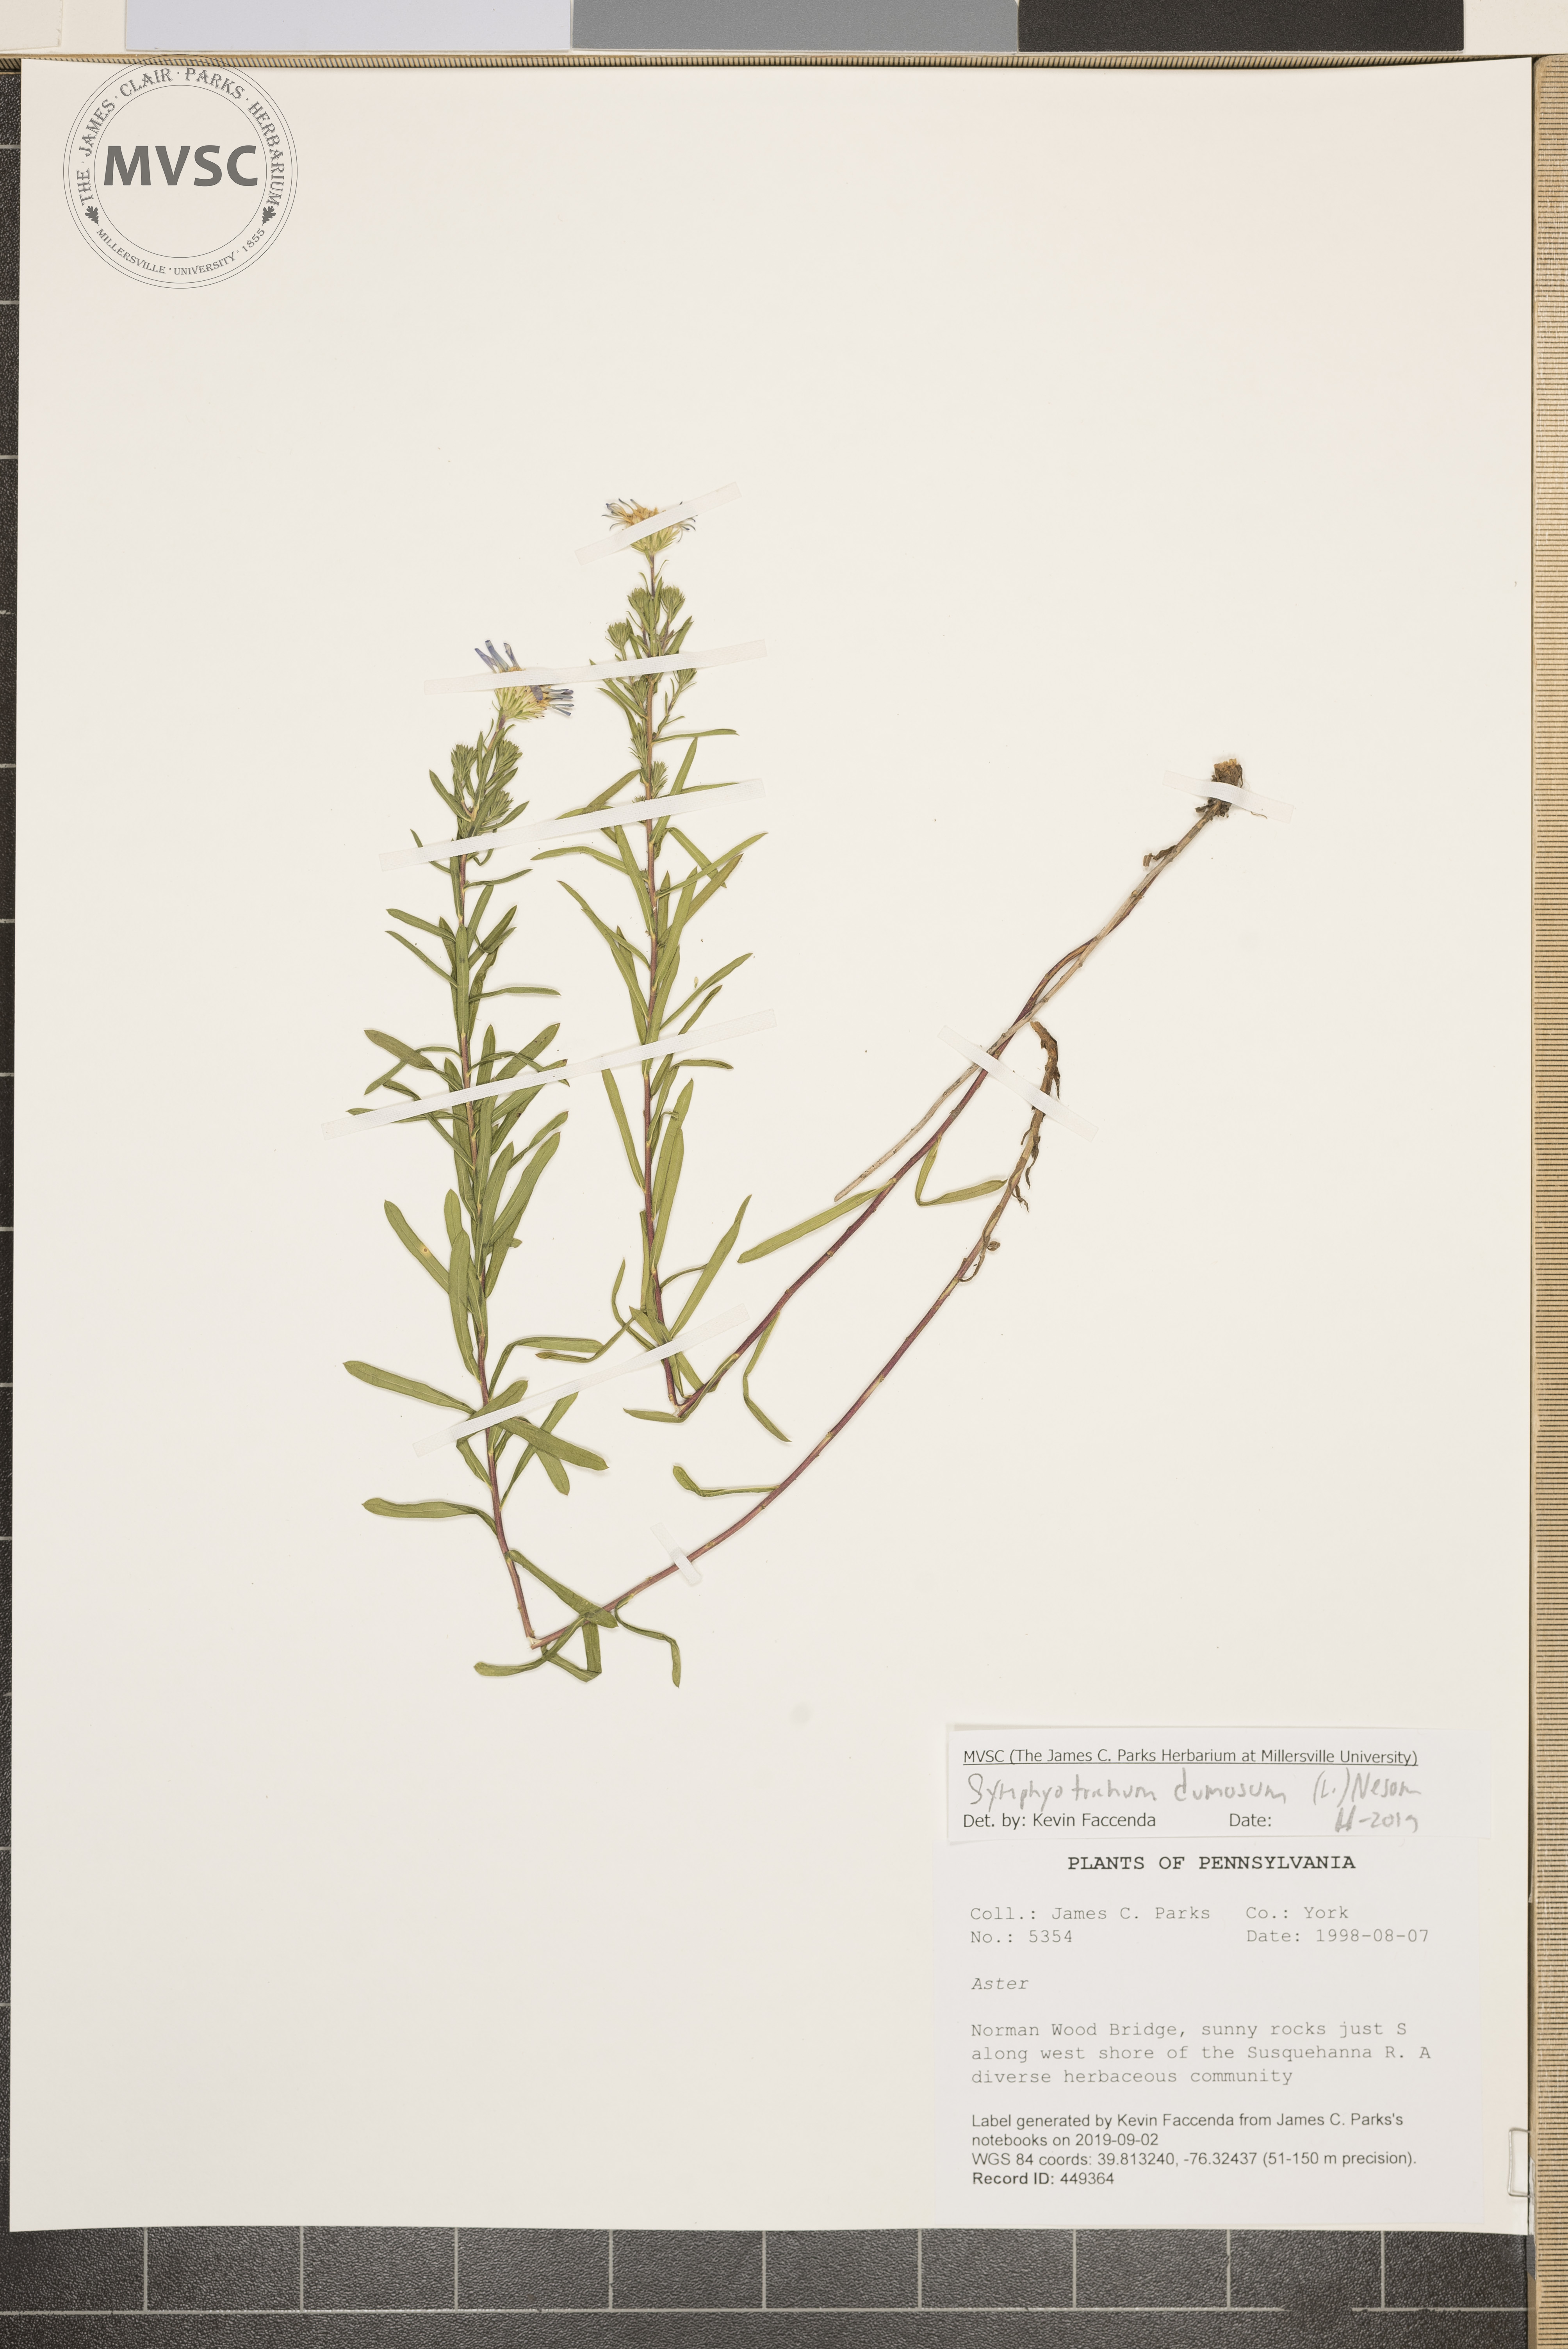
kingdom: Plantae
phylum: Tracheophyta
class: Magnoliopsida
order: Asterales
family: Asteraceae
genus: Symphyotrichum
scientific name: Symphyotrichum dumosum
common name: Bushy aster
